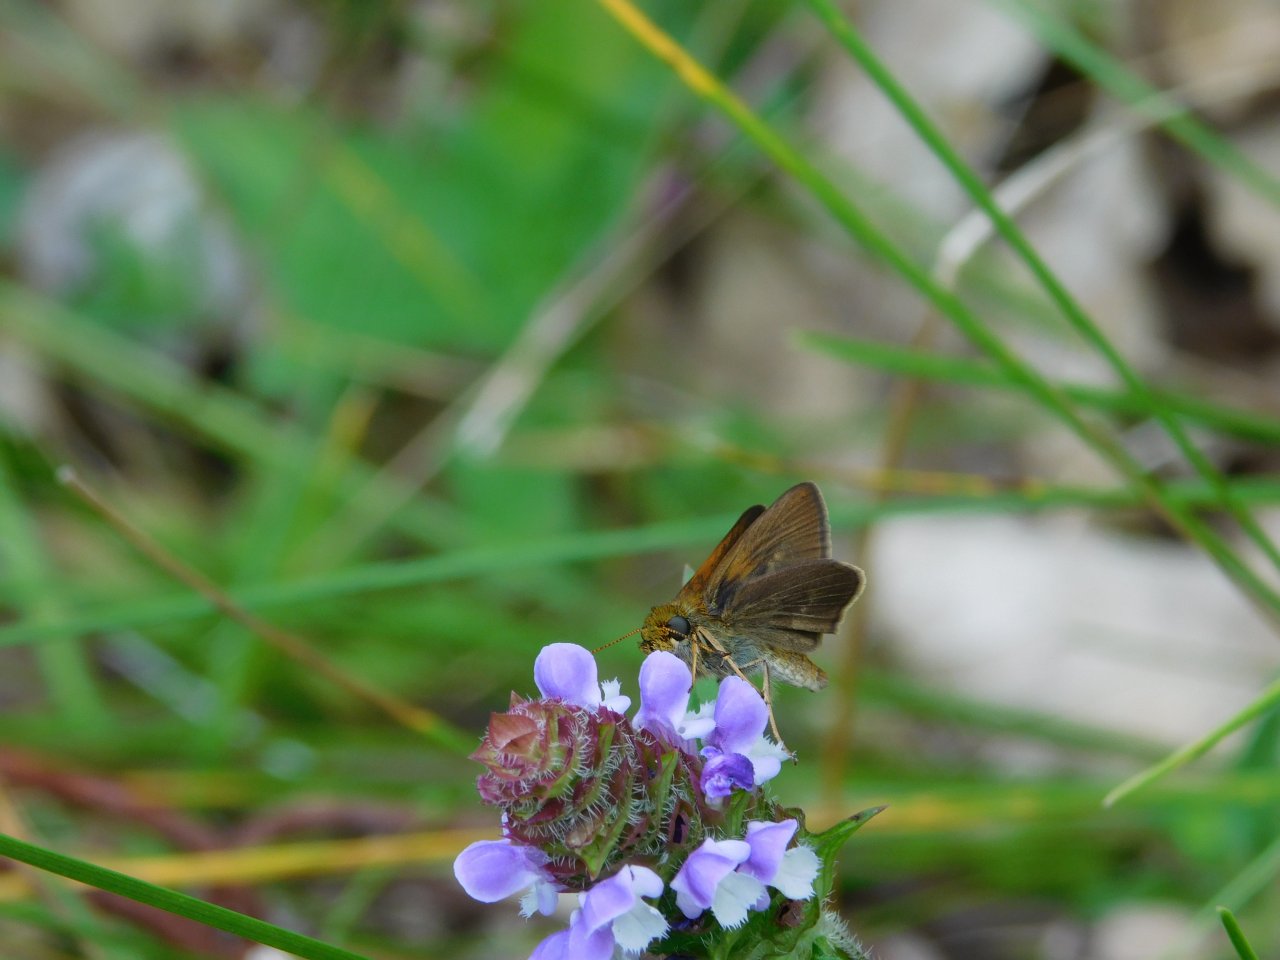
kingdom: Animalia
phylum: Arthropoda
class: Insecta
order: Lepidoptera
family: Hesperiidae
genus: Euphyes
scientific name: Euphyes vestris
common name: Dun Skipper
